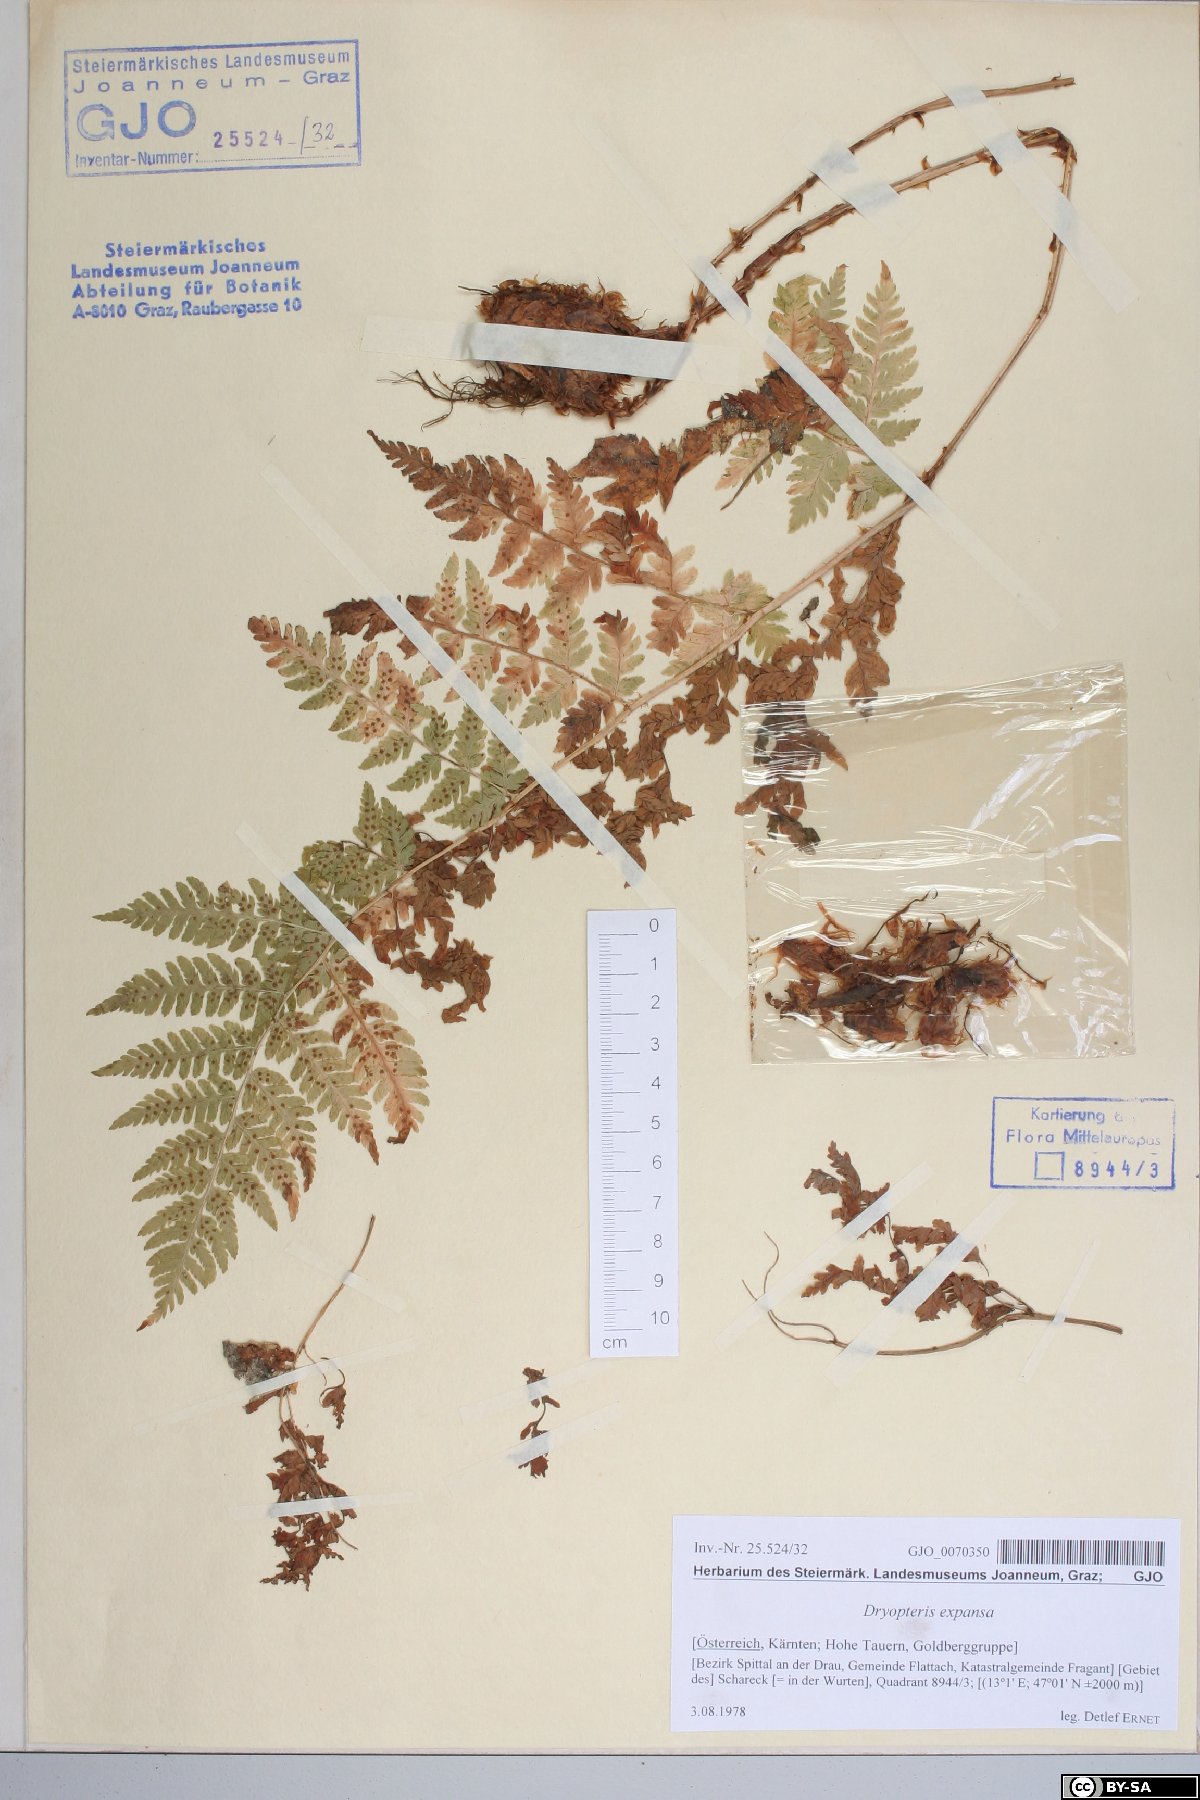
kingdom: Plantae
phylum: Tracheophyta
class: Polypodiopsida
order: Polypodiales
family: Dryopteridaceae
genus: Dryopteris
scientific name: Dryopteris expansa
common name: Northern buckler fern
